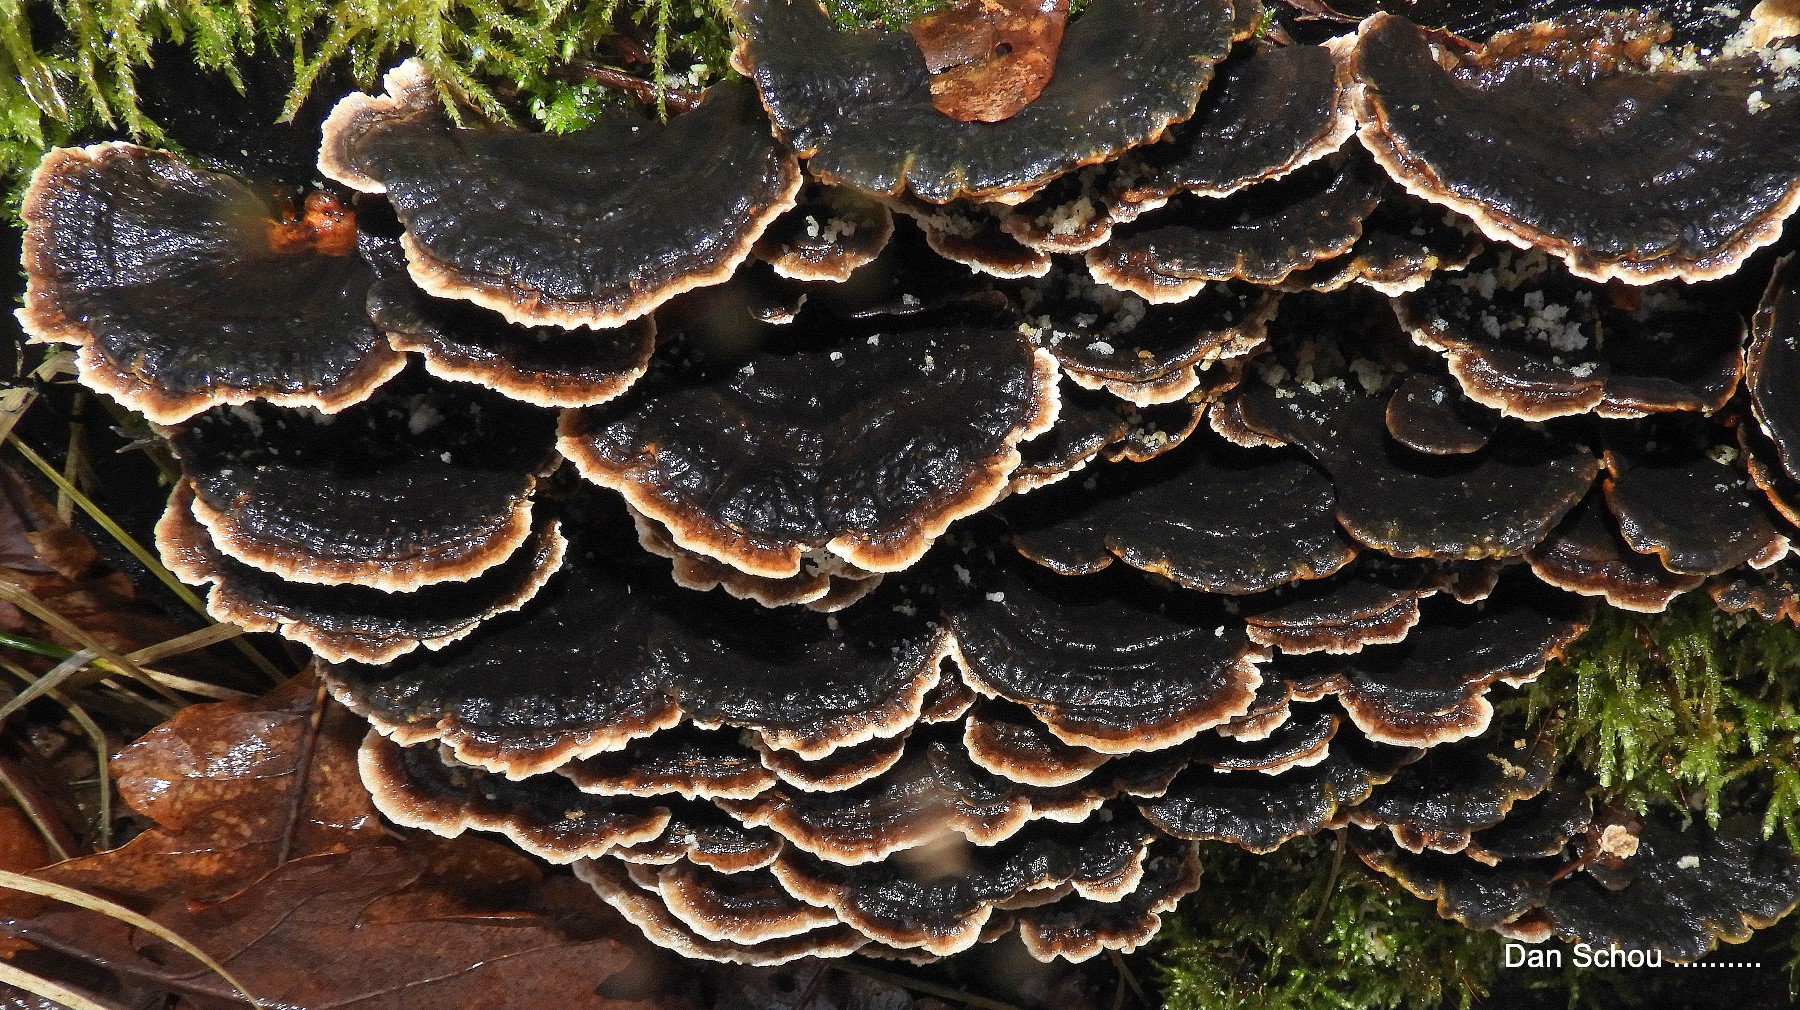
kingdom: Fungi
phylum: Basidiomycota
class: Agaricomycetes
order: Polyporales
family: Phanerochaetaceae
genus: Bjerkandera
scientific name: Bjerkandera adusta
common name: sveden sodporesvamp
